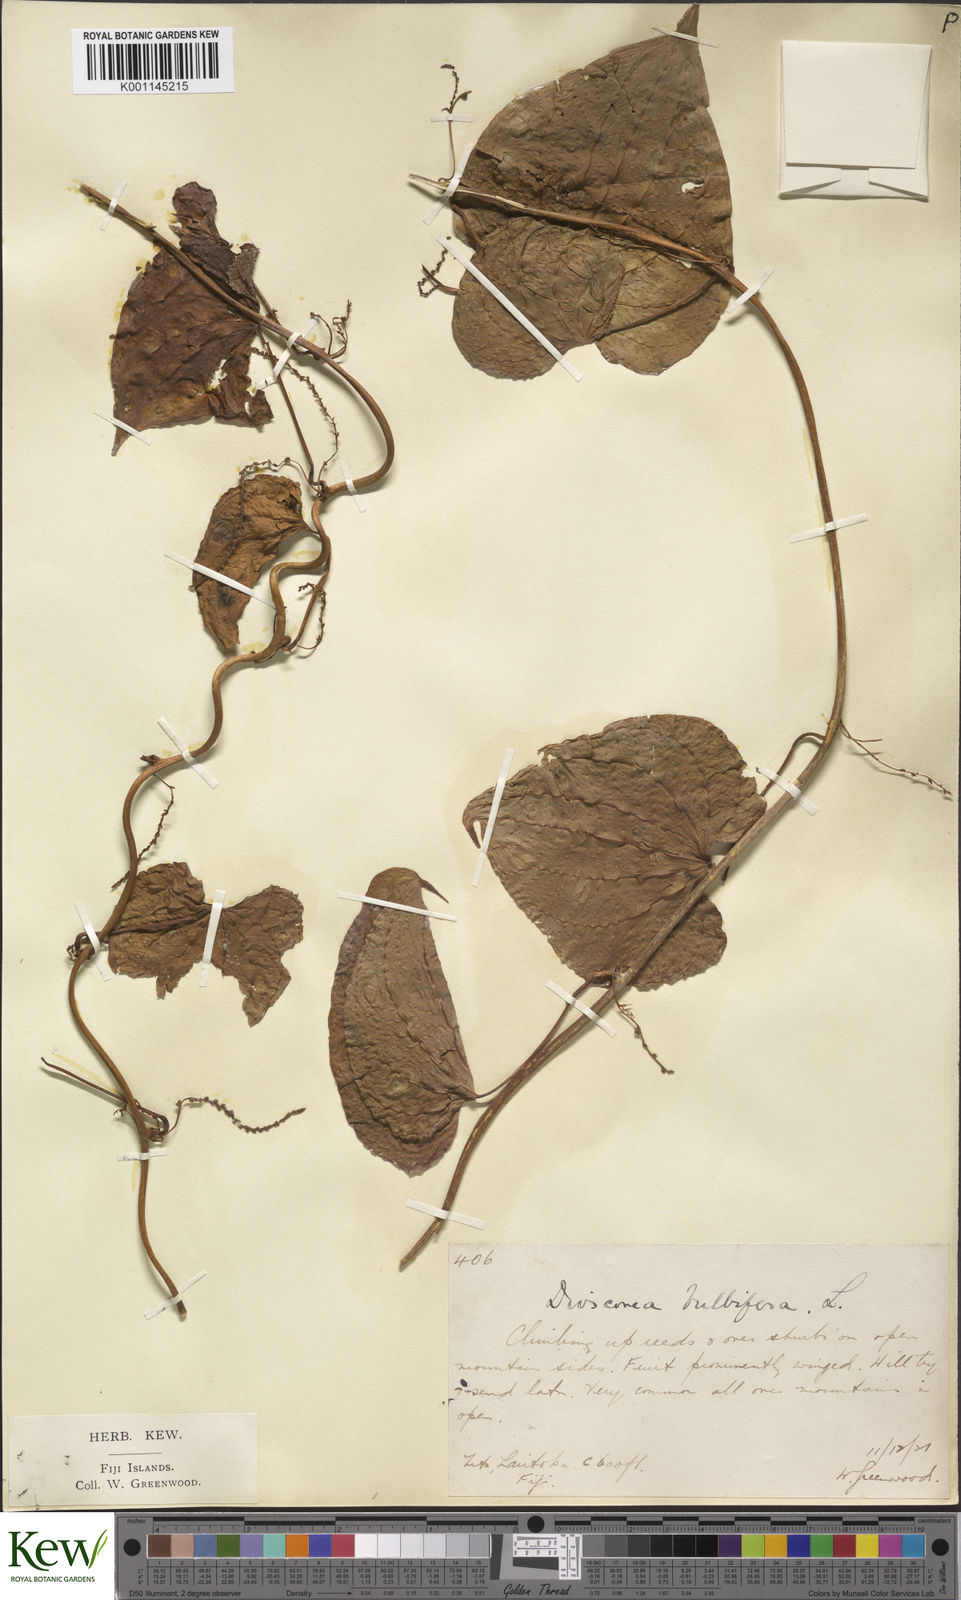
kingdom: Plantae
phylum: Tracheophyta
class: Liliopsida
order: Dioscoreales
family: Dioscoreaceae
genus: Dioscorea
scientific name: Dioscorea bulbifera
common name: Air yam
